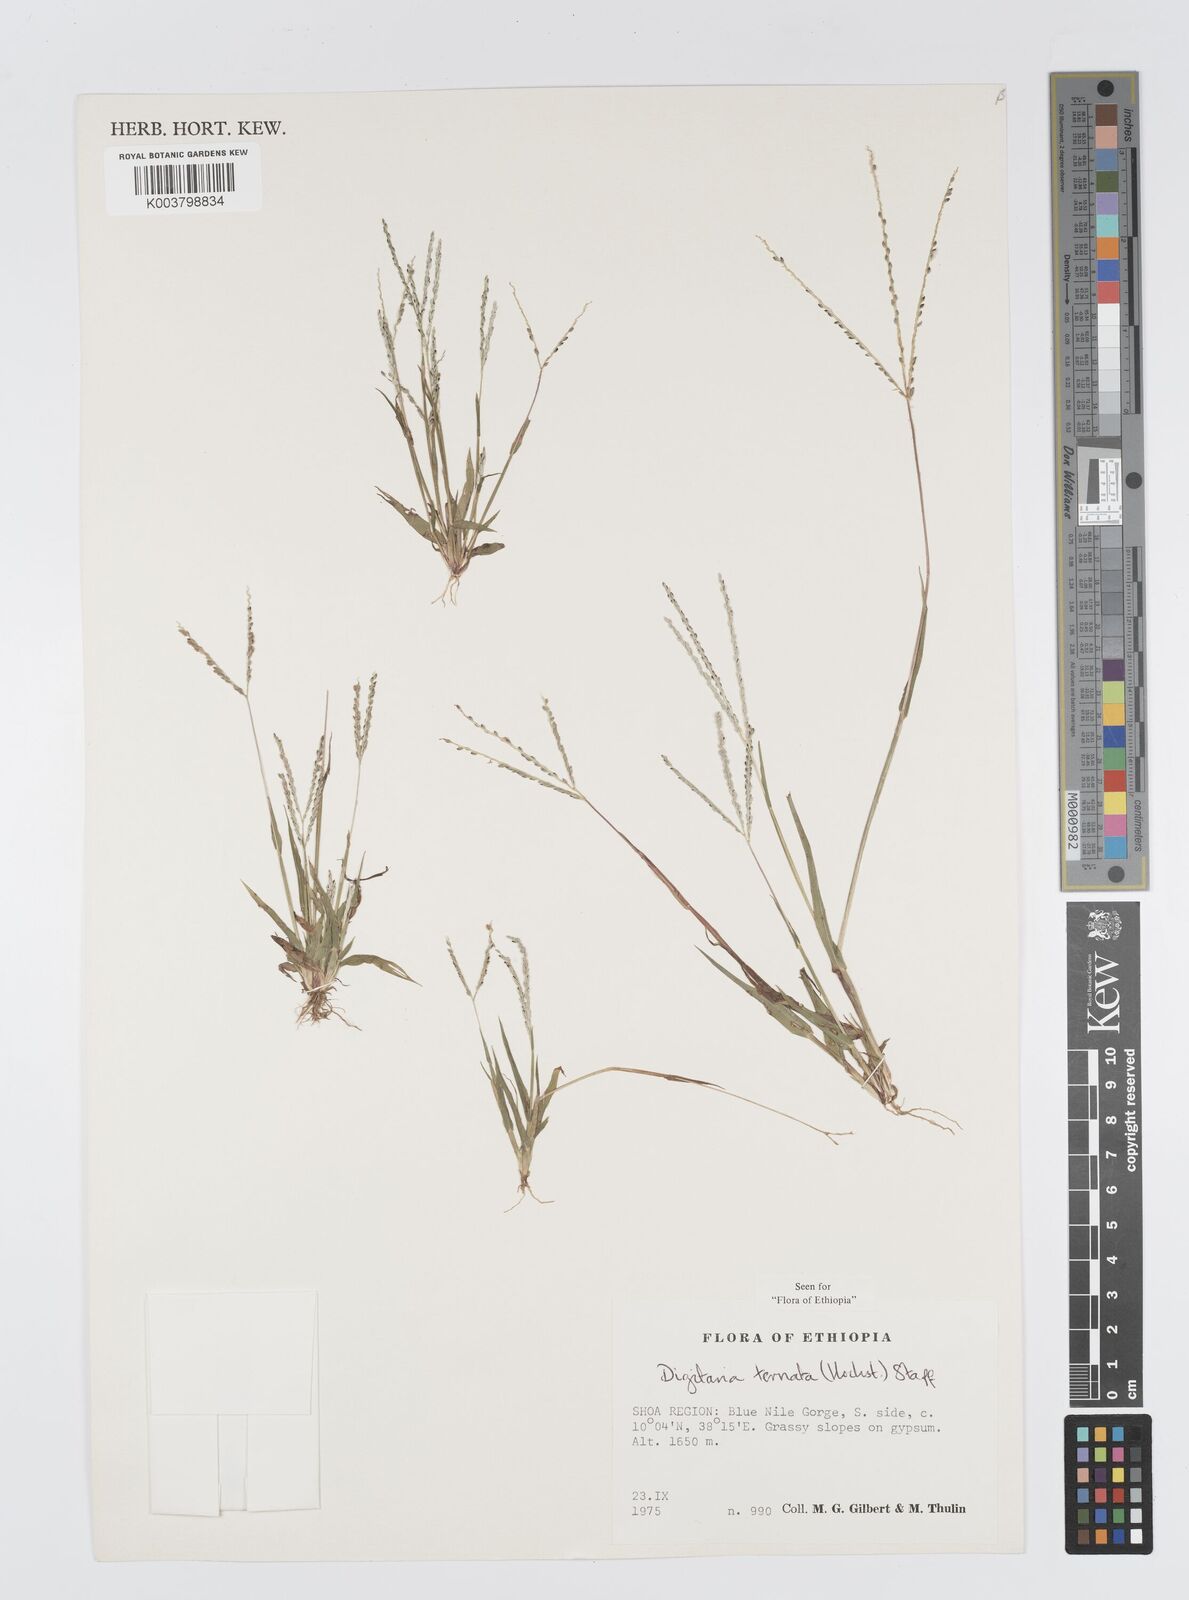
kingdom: Plantae
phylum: Tracheophyta
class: Liliopsida
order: Poales
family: Poaceae
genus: Digitaria
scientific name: Digitaria ternata
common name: Blackseed crabgrass
